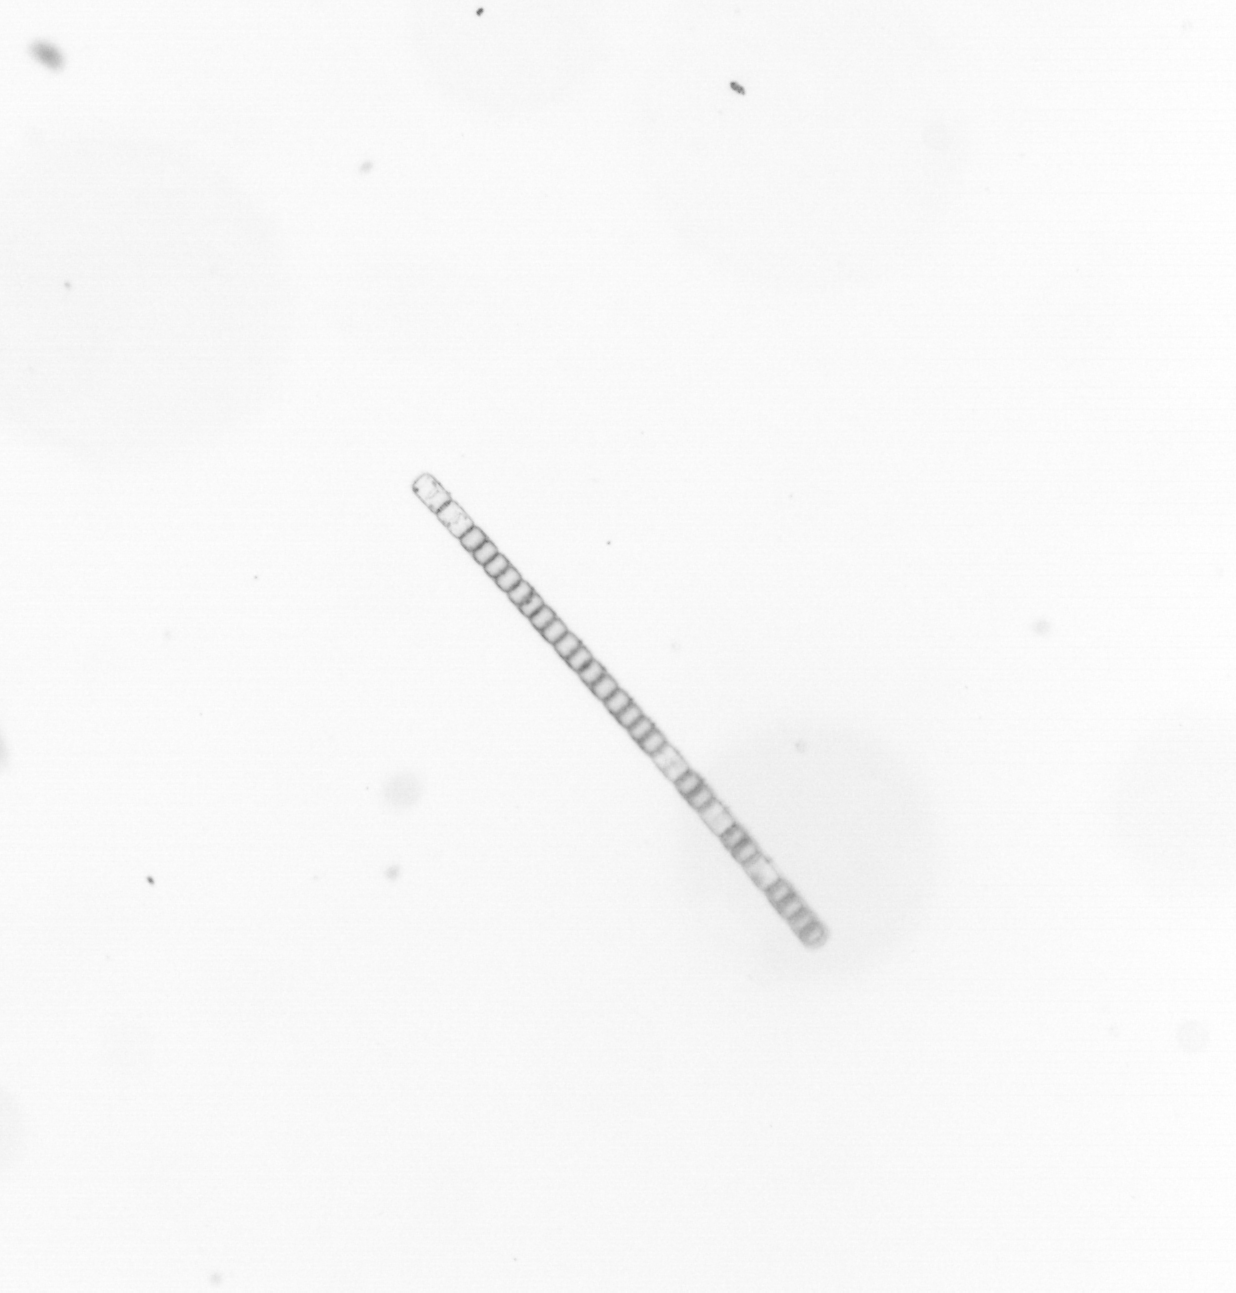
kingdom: Chromista
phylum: Ochrophyta
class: Bacillariophyceae
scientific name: Bacillariophyceae
